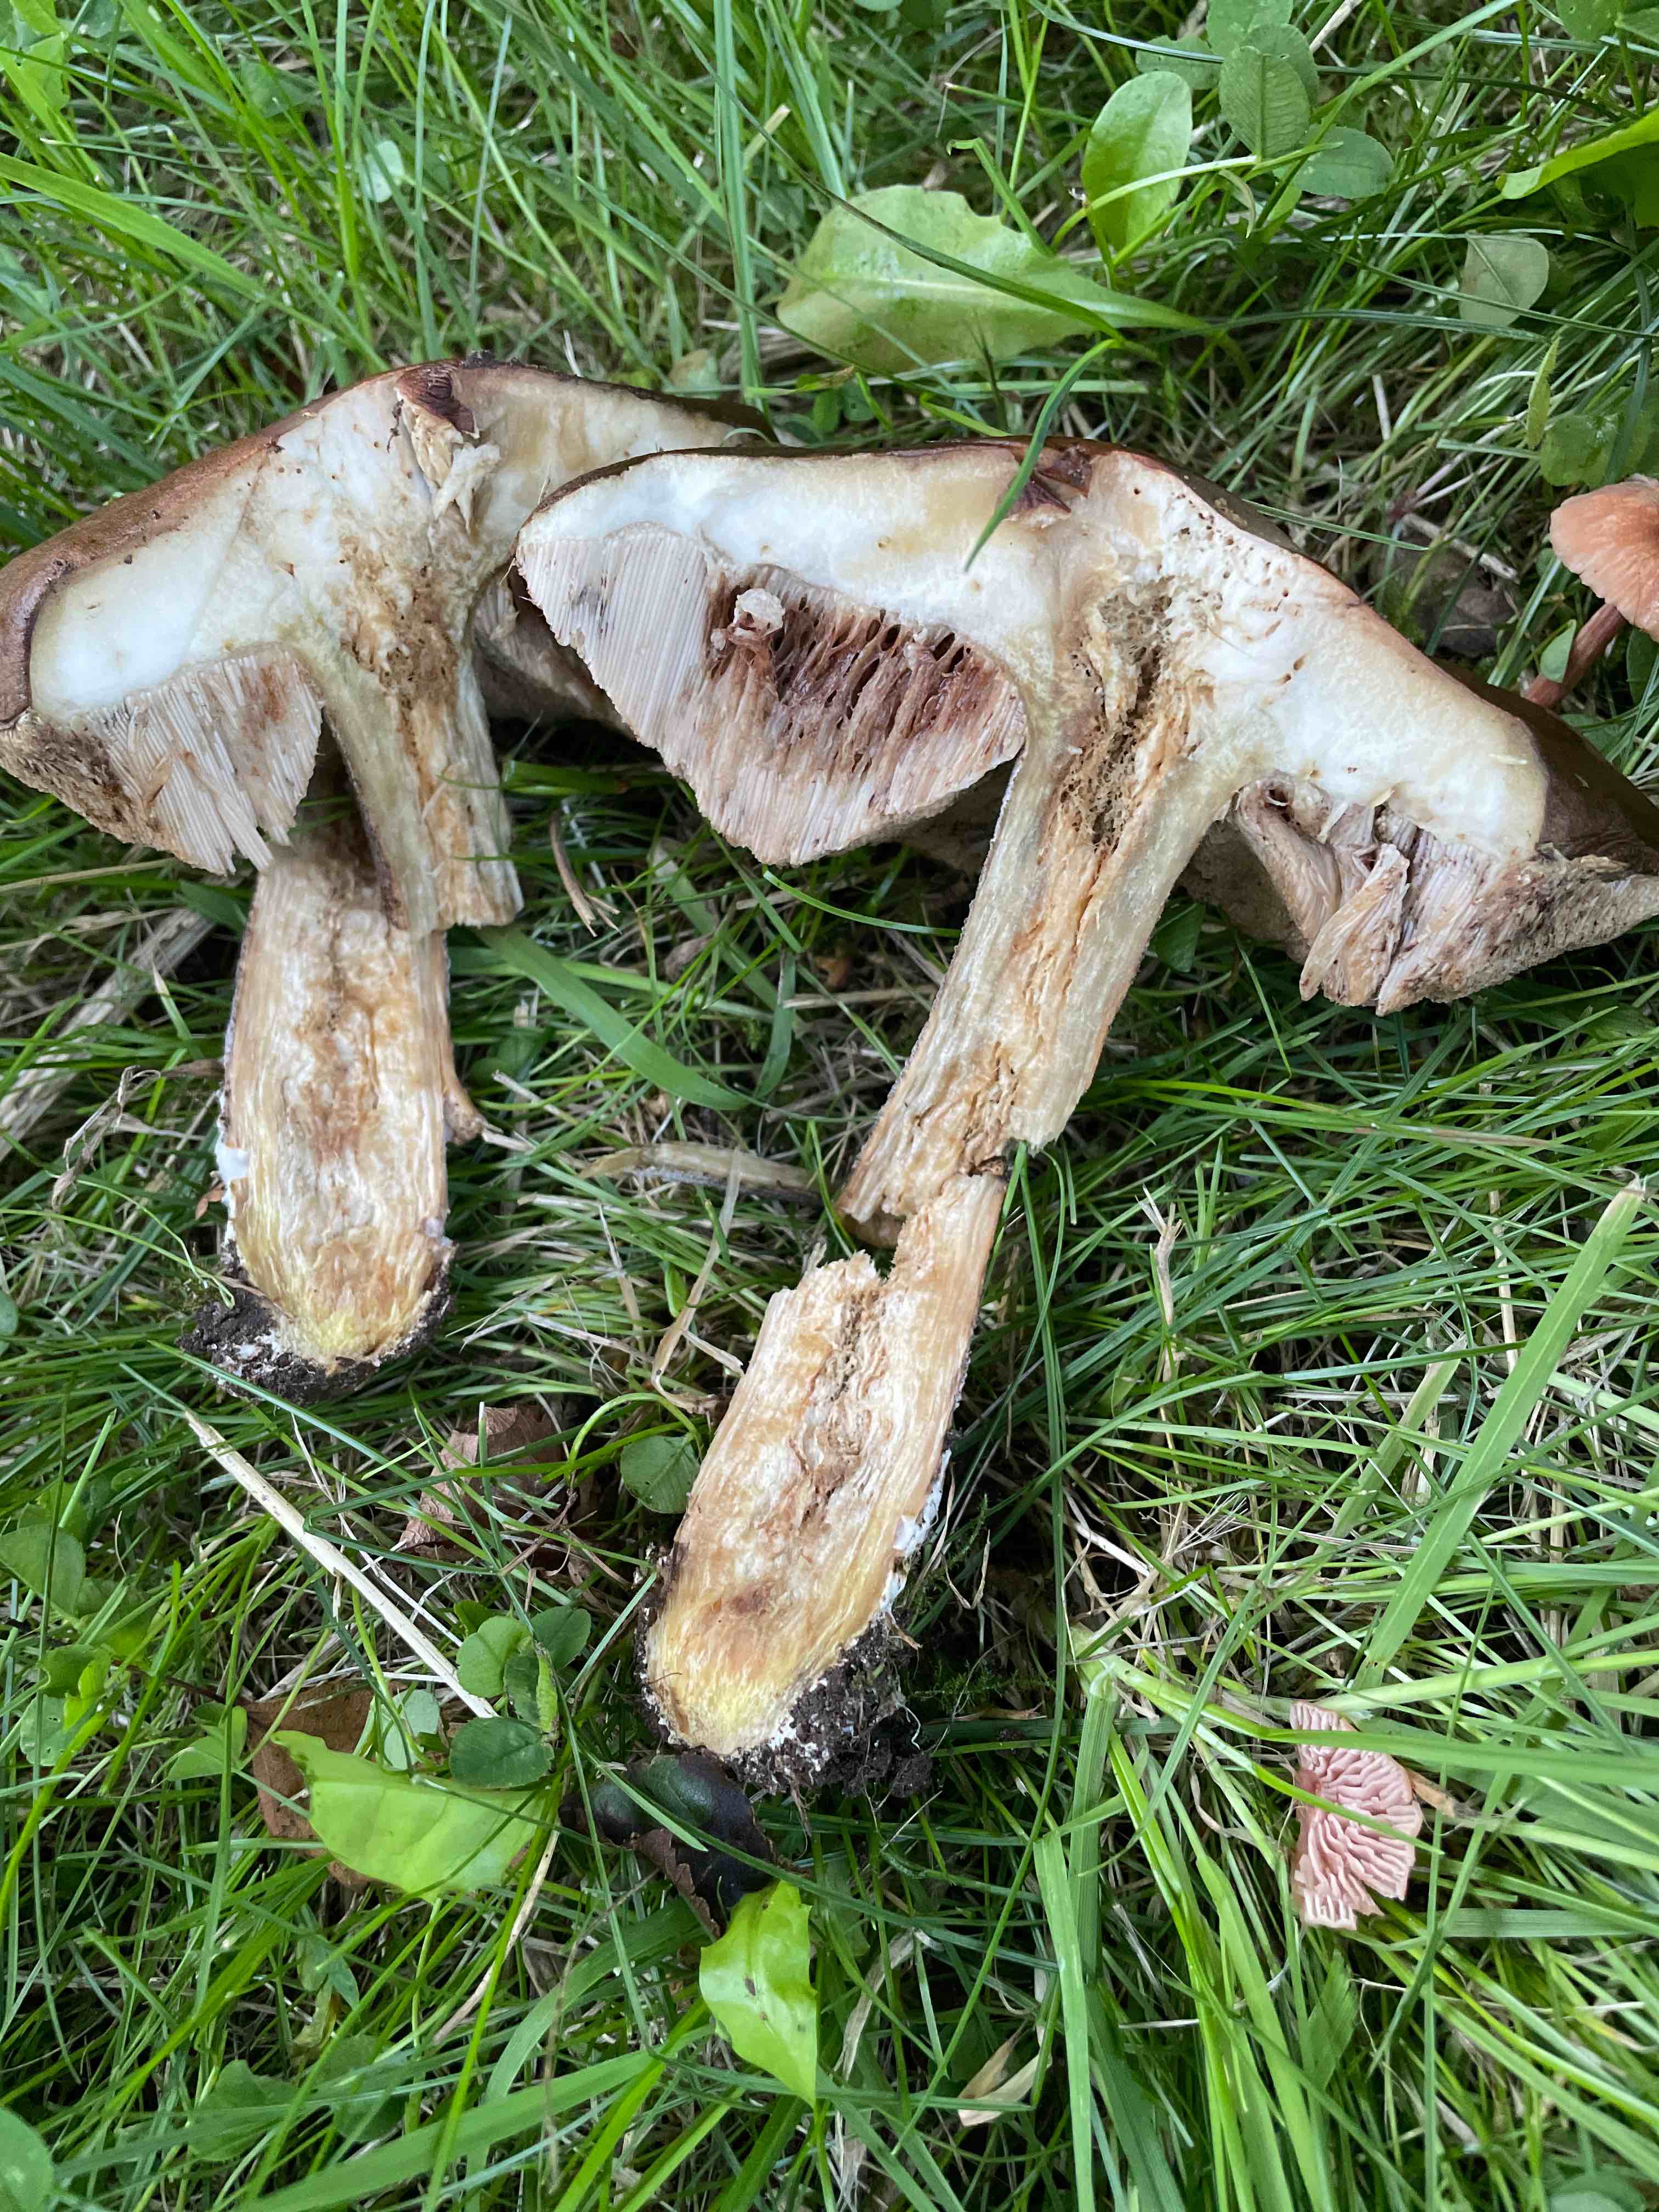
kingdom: Fungi
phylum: Basidiomycota
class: Agaricomycetes
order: Boletales
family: Boletaceae
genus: Leccinum
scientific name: Leccinum scabrum
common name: brun skælrørhat
